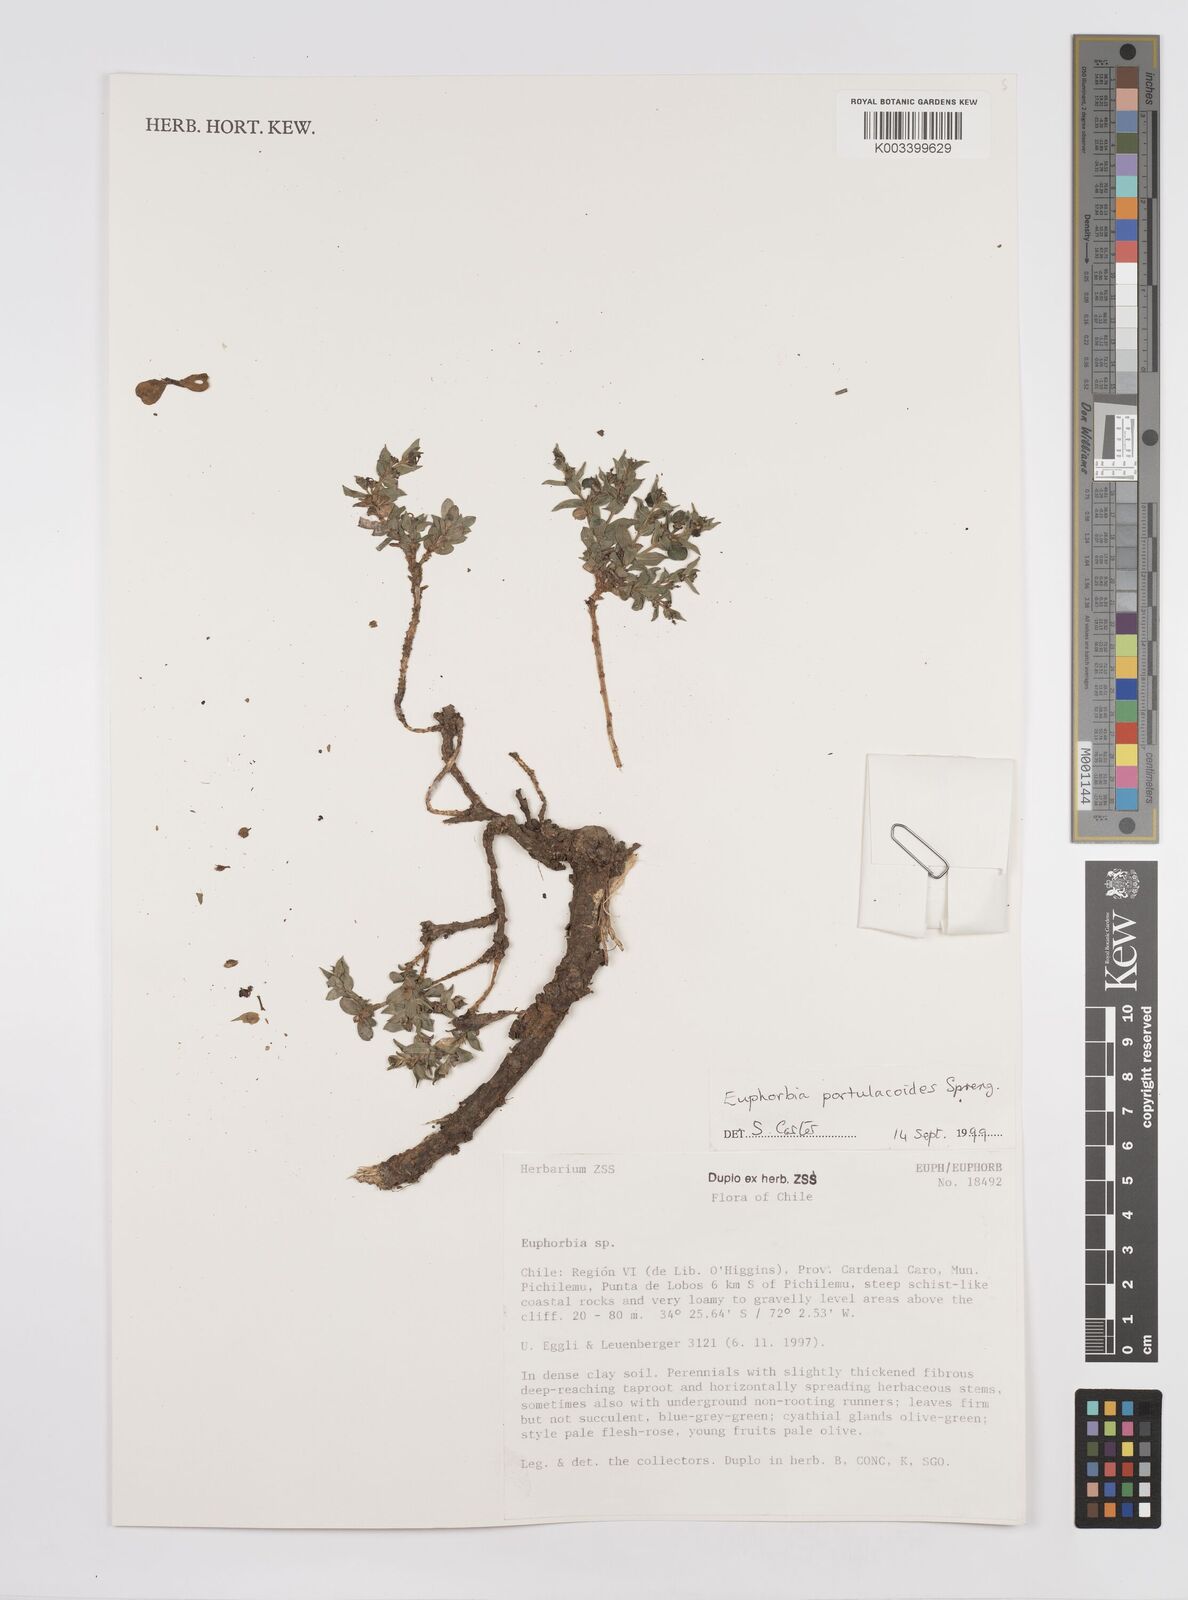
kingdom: Plantae
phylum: Tracheophyta
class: Magnoliopsida
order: Malpighiales
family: Euphorbiaceae
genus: Euphorbia
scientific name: Euphorbia portulacoides
